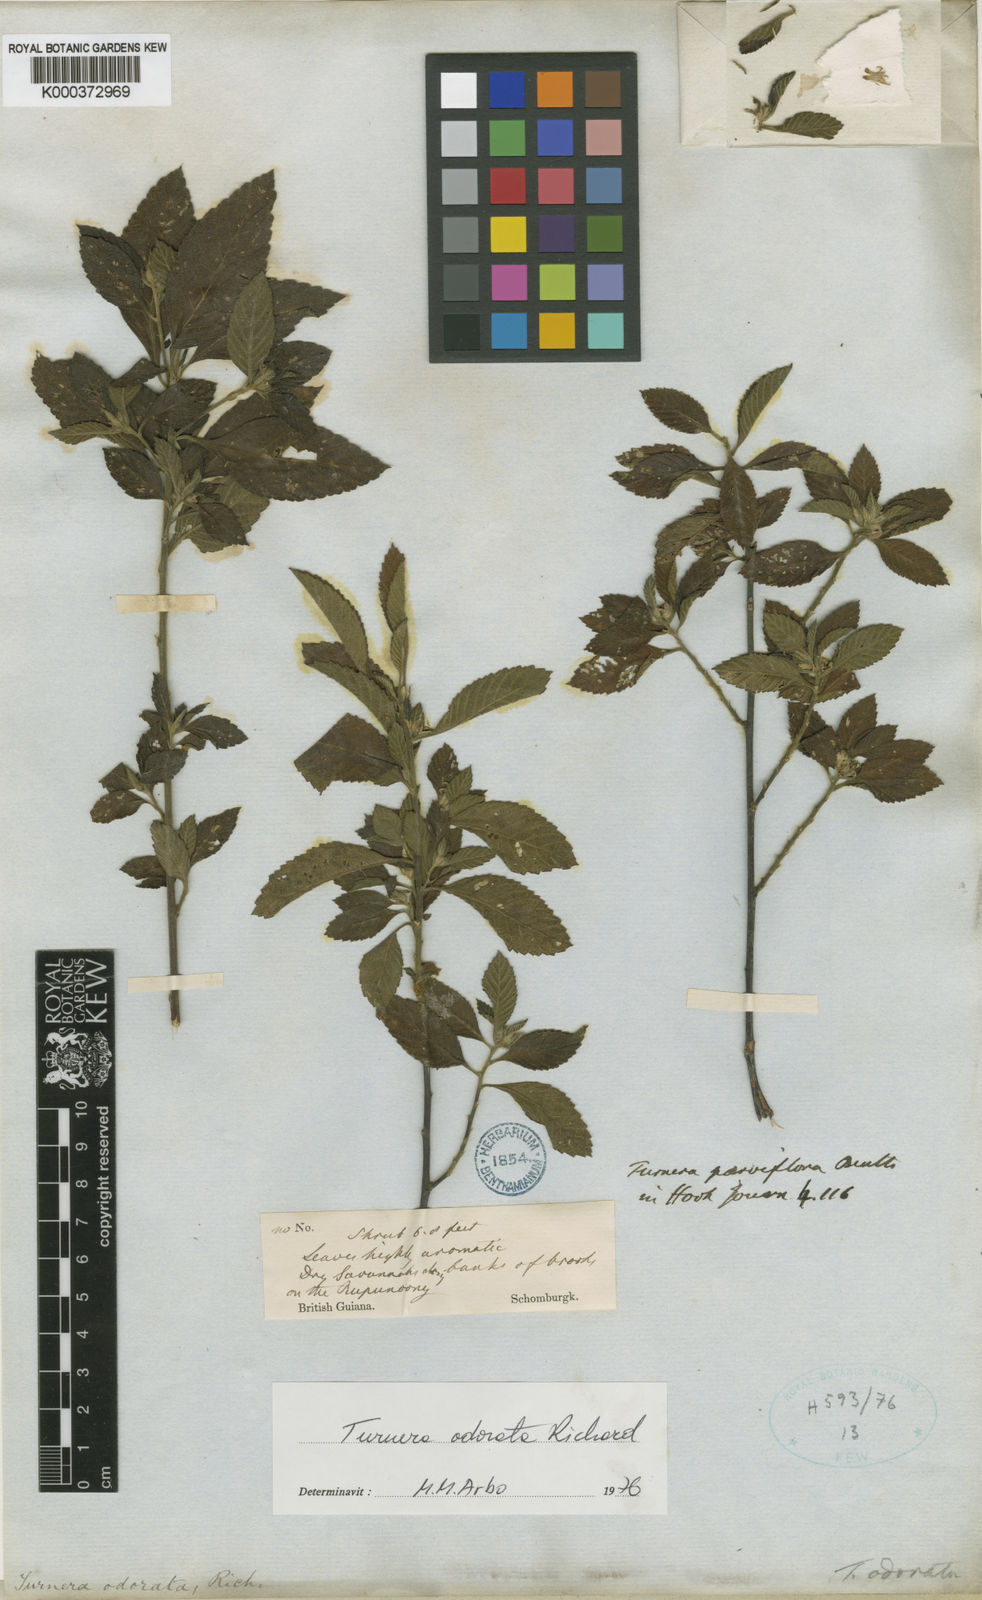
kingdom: Plantae
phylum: Tracheophyta
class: Magnoliopsida
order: Malpighiales
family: Turneraceae
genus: Turnera
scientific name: Turnera odorata
